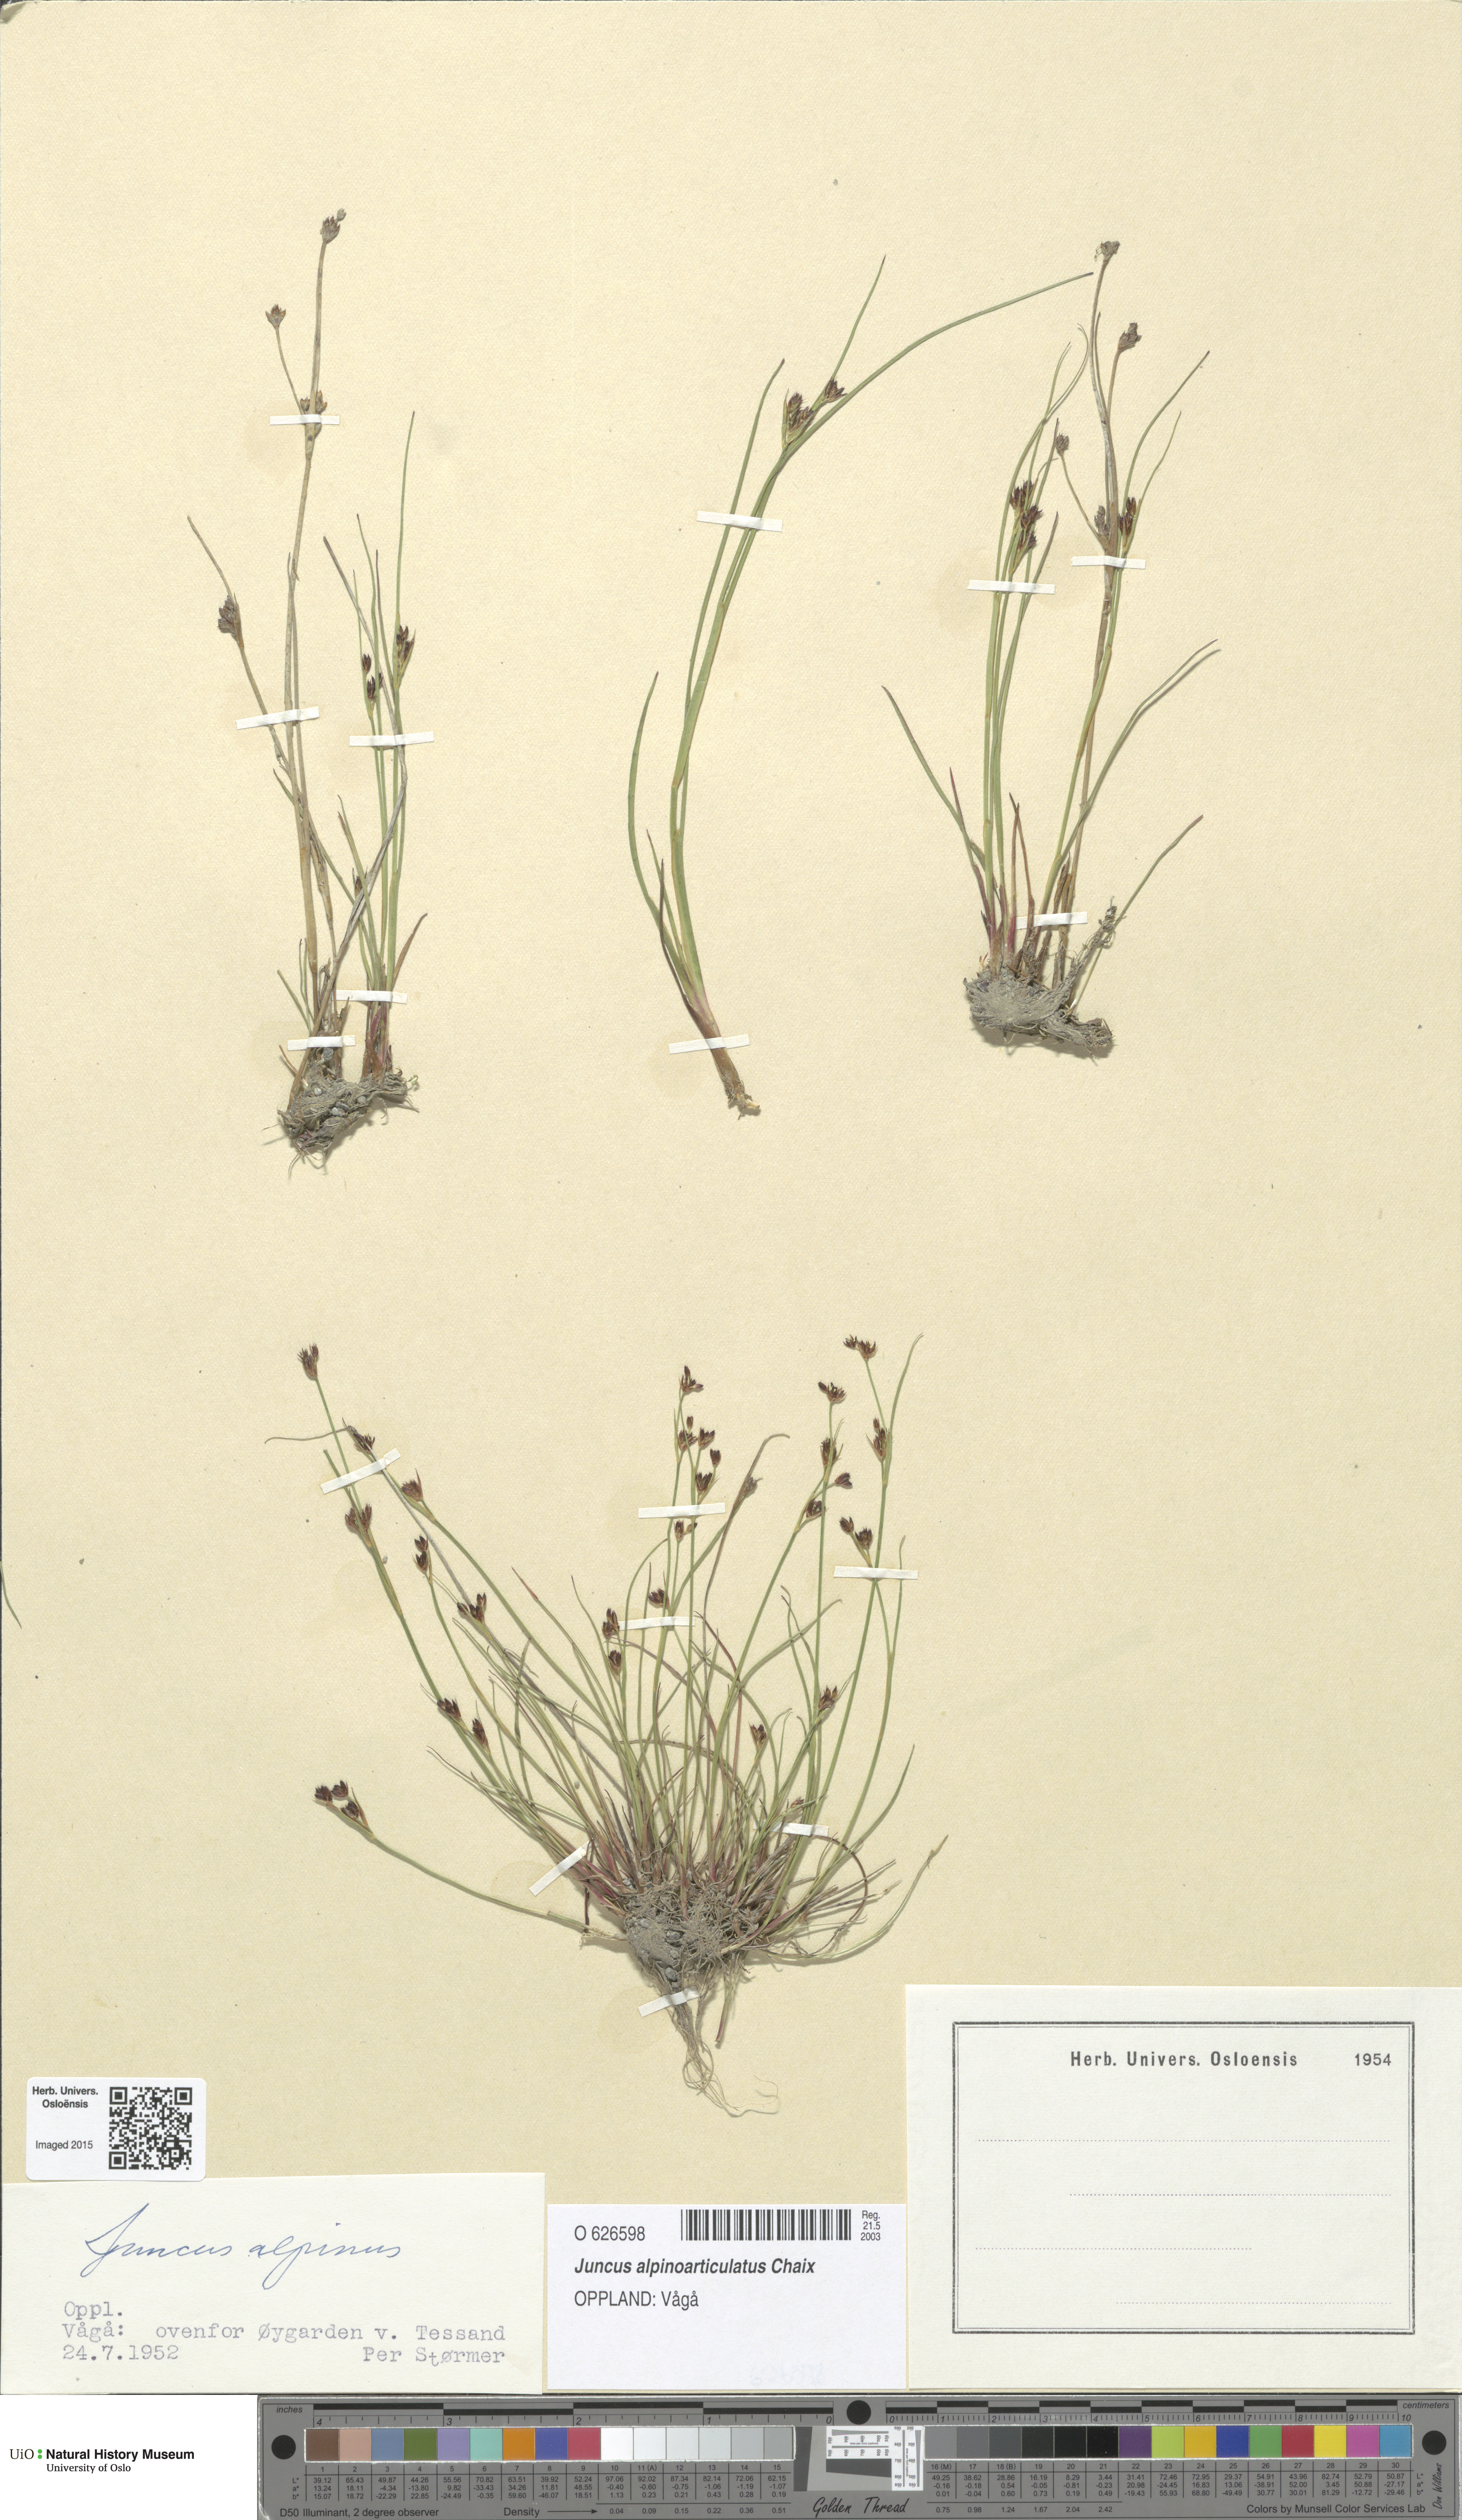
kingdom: Plantae
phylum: Tracheophyta
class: Liliopsida
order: Poales
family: Juncaceae
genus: Juncus
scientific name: Juncus alpinoarticulatus
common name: Alpine rush
